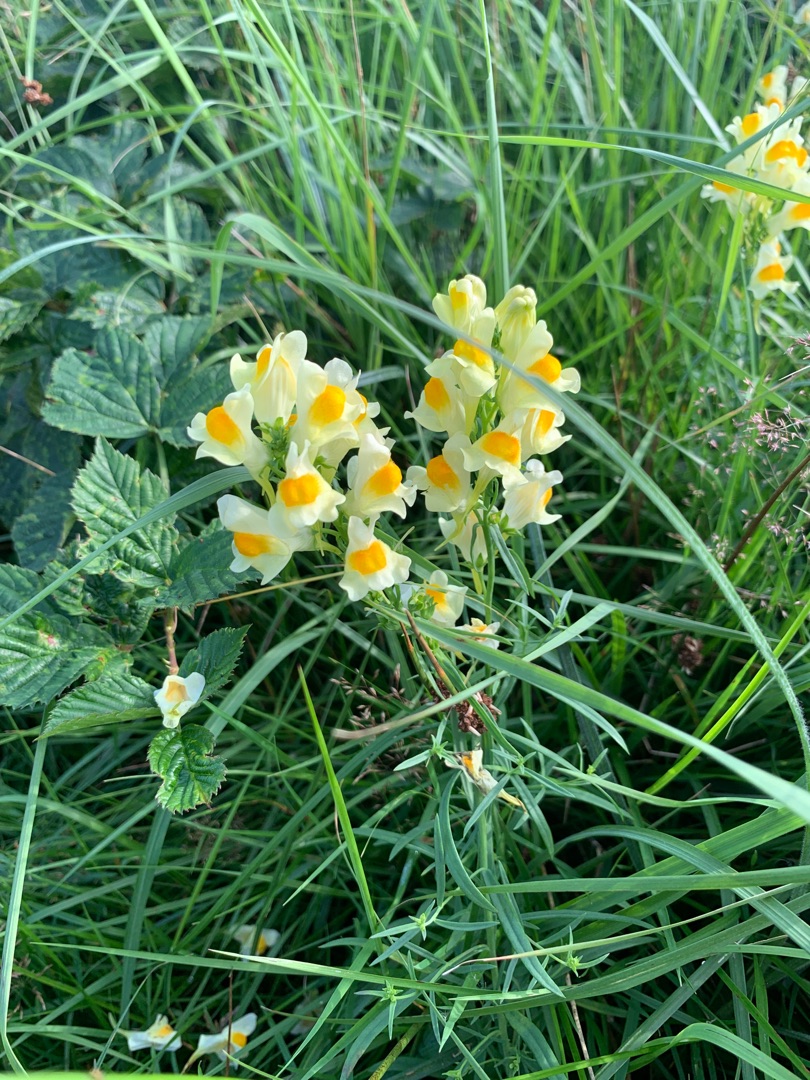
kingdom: Plantae
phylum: Tracheophyta
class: Magnoliopsida
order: Lamiales
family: Plantaginaceae
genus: Linaria
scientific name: Linaria vulgaris
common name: Almindelig torskemund
